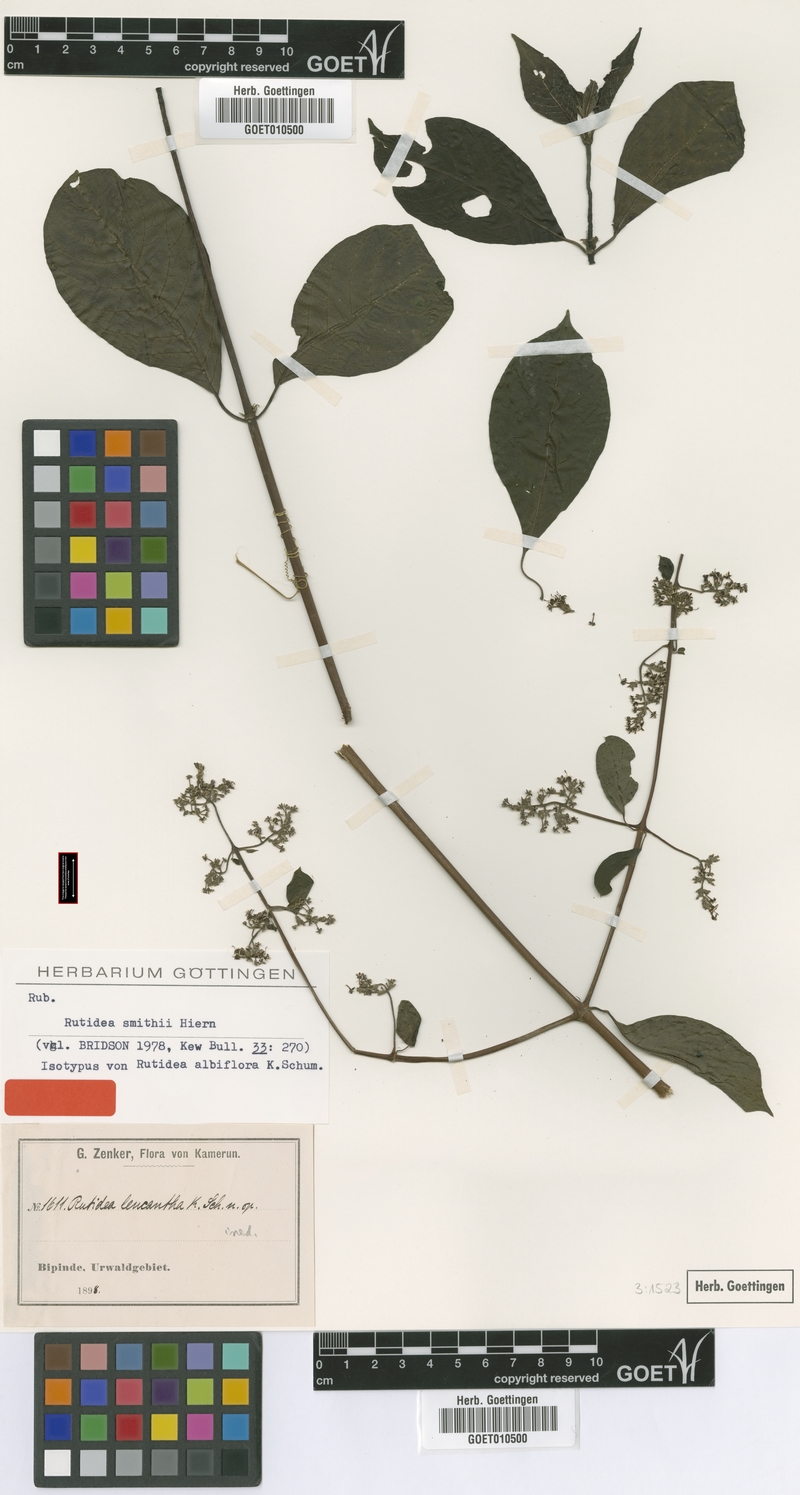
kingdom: Plantae
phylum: Tracheophyta
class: Magnoliopsida
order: Gentianales
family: Rubiaceae
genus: Rutidea
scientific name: Rutidea smithii
